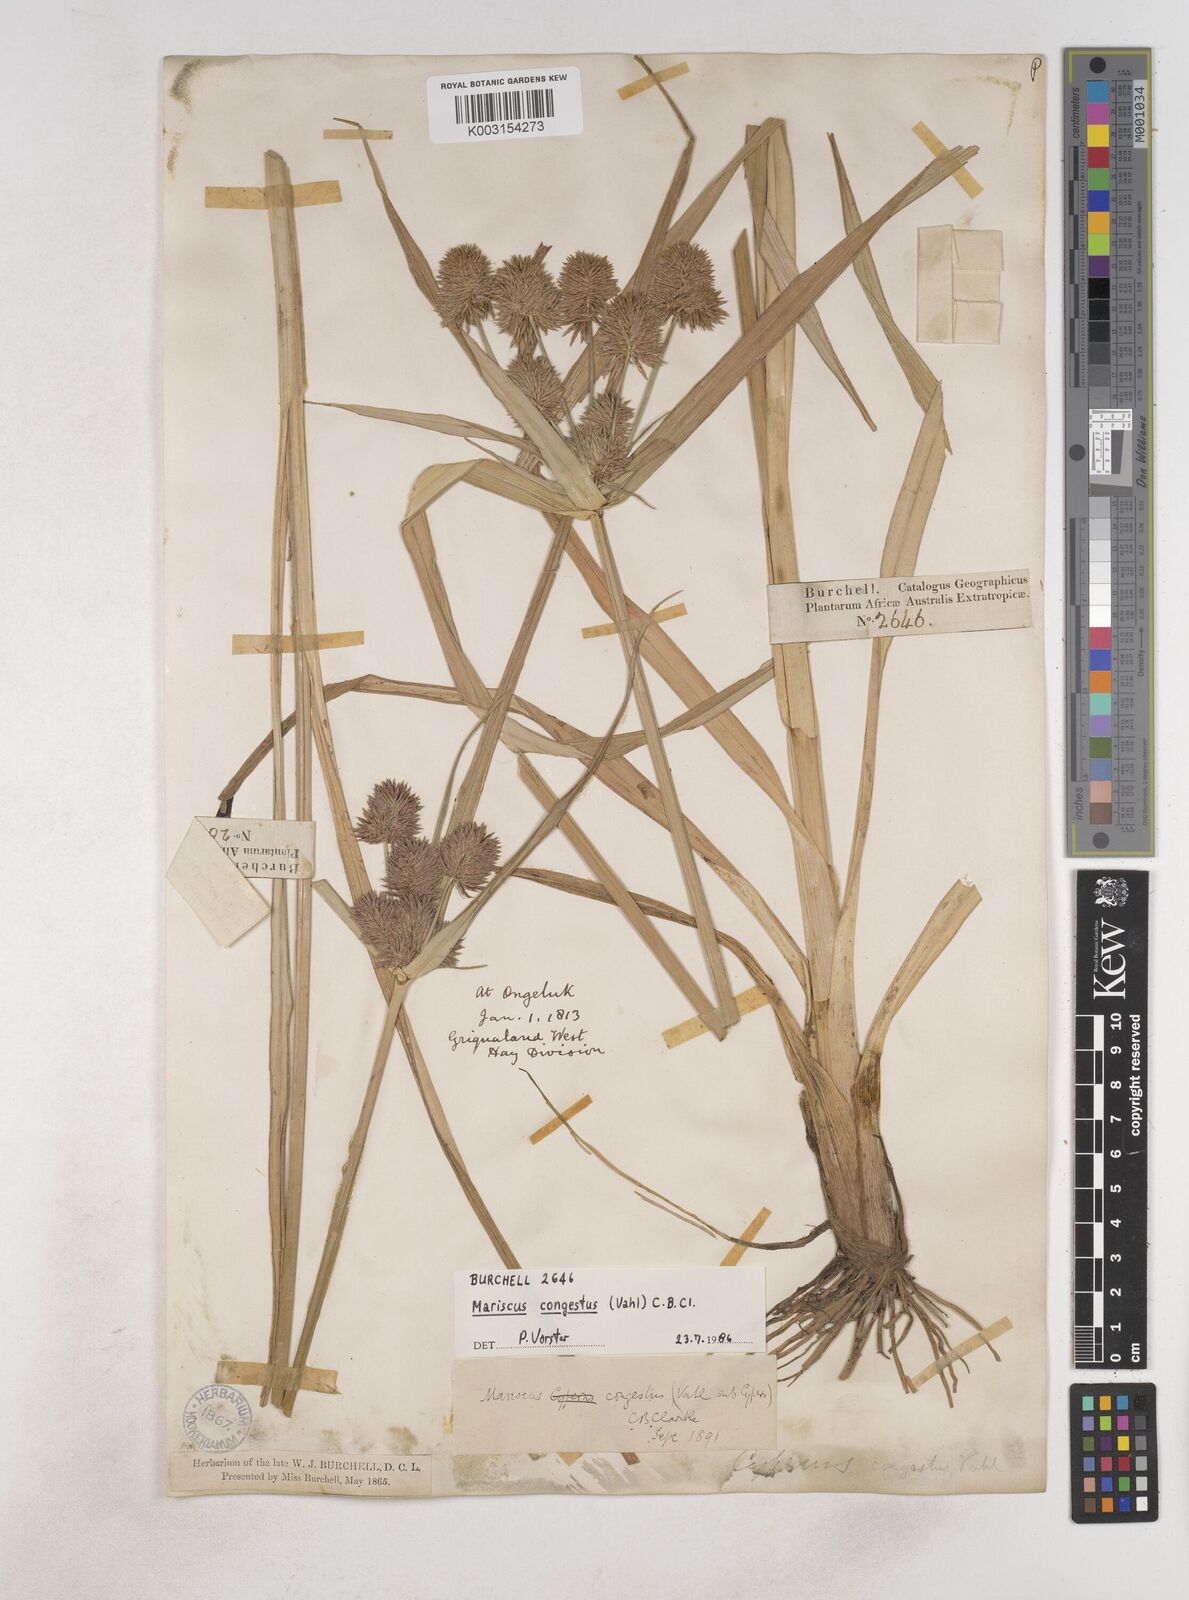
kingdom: Plantae
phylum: Tracheophyta
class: Liliopsida
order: Poales
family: Cyperaceae
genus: Cyperus
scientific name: Cyperus congestus
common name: Dense flat sedge
